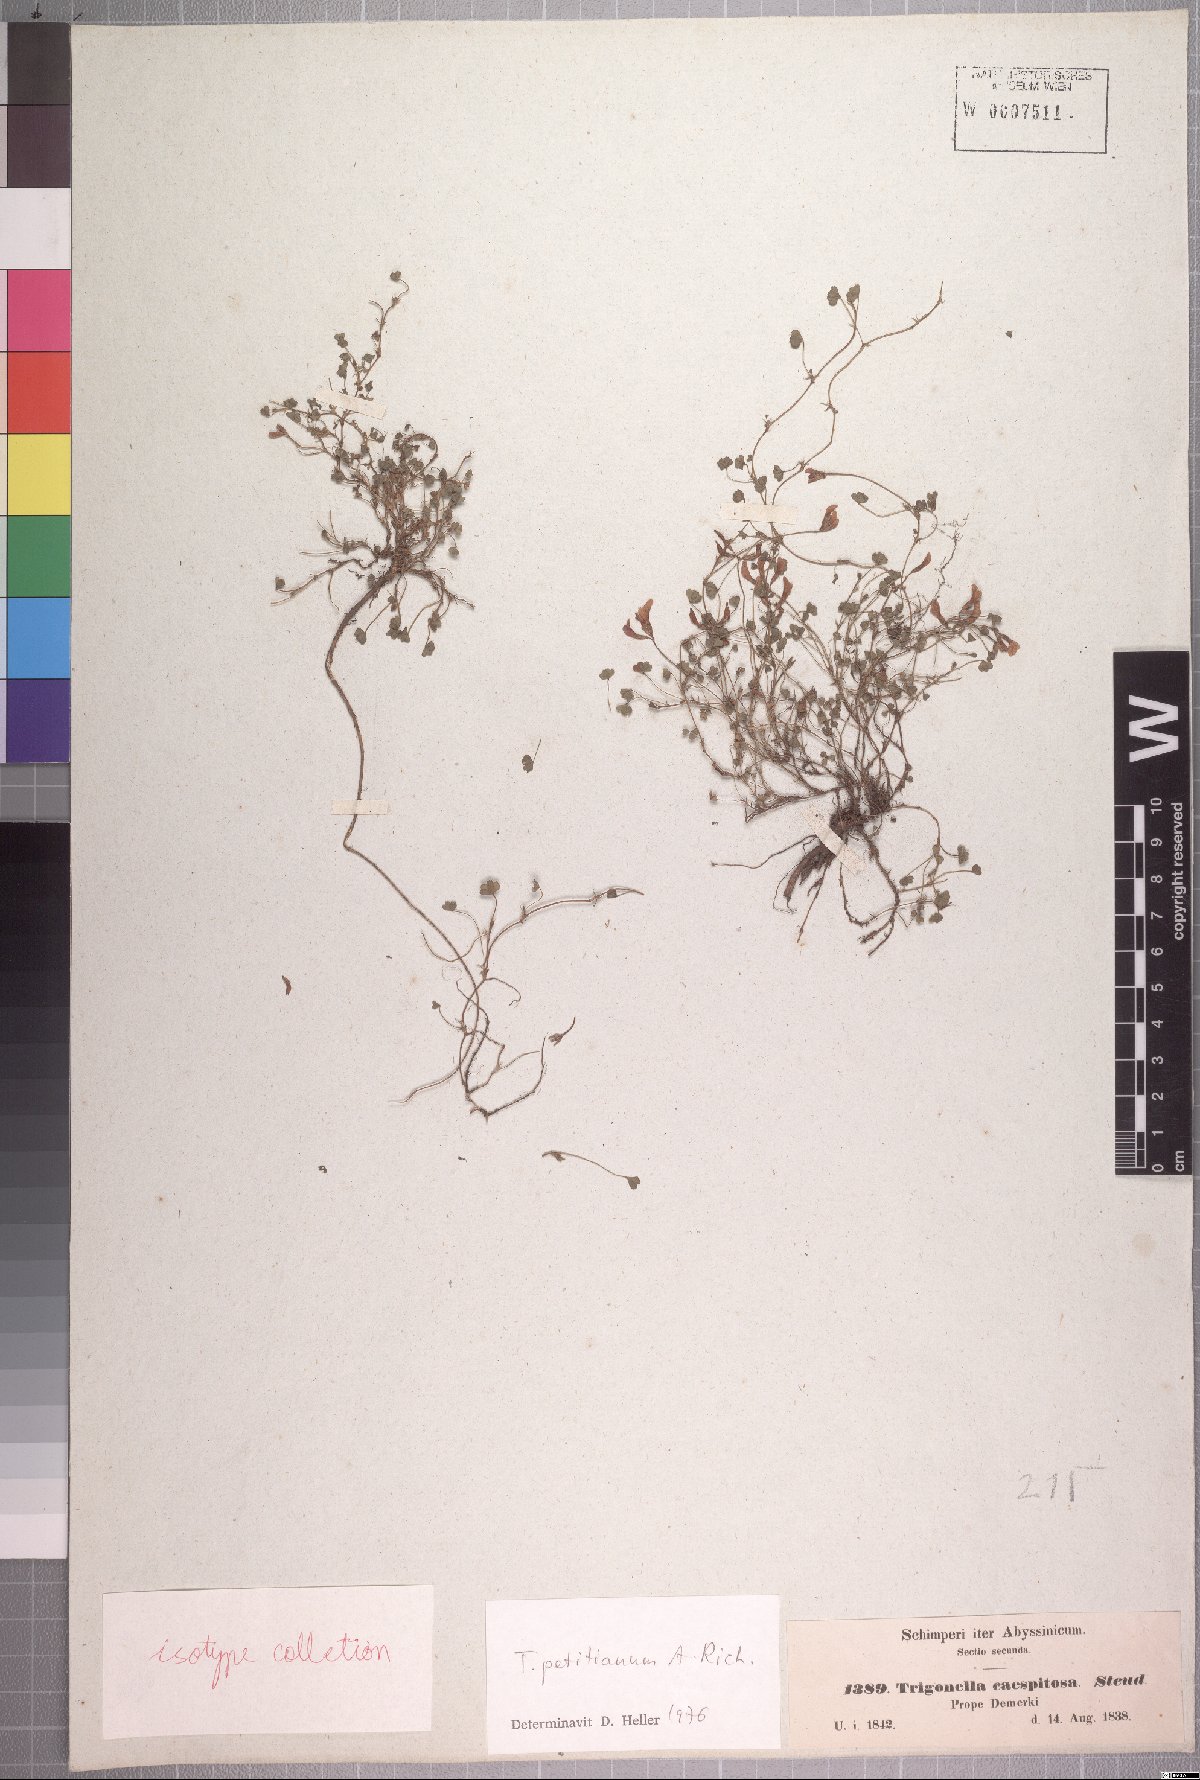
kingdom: Plantae
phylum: Tracheophyta
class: Magnoliopsida
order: Fabales
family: Fabaceae
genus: Trifolium
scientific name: Trifolium acaule
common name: Stemless clover
